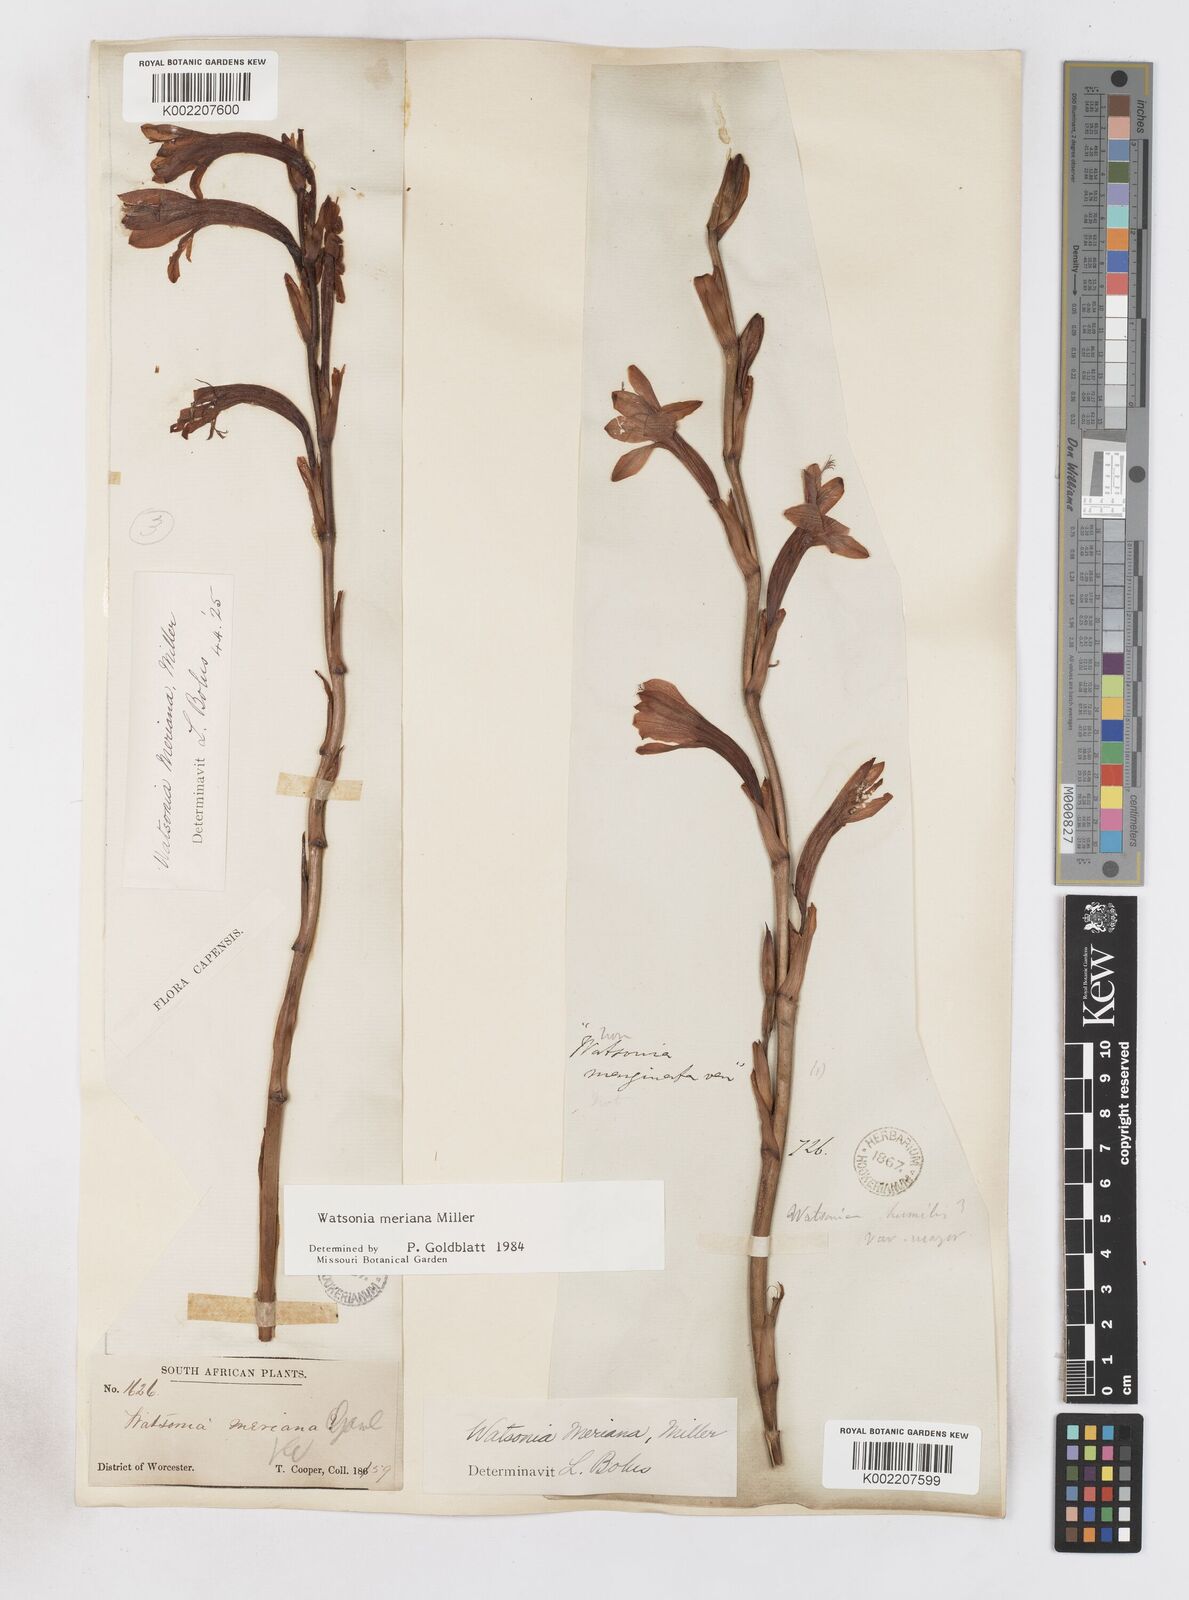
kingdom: Plantae
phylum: Tracheophyta
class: Liliopsida
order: Asparagales
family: Iridaceae
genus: Watsonia
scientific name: Watsonia meriana
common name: Bulbil bugle-lily
